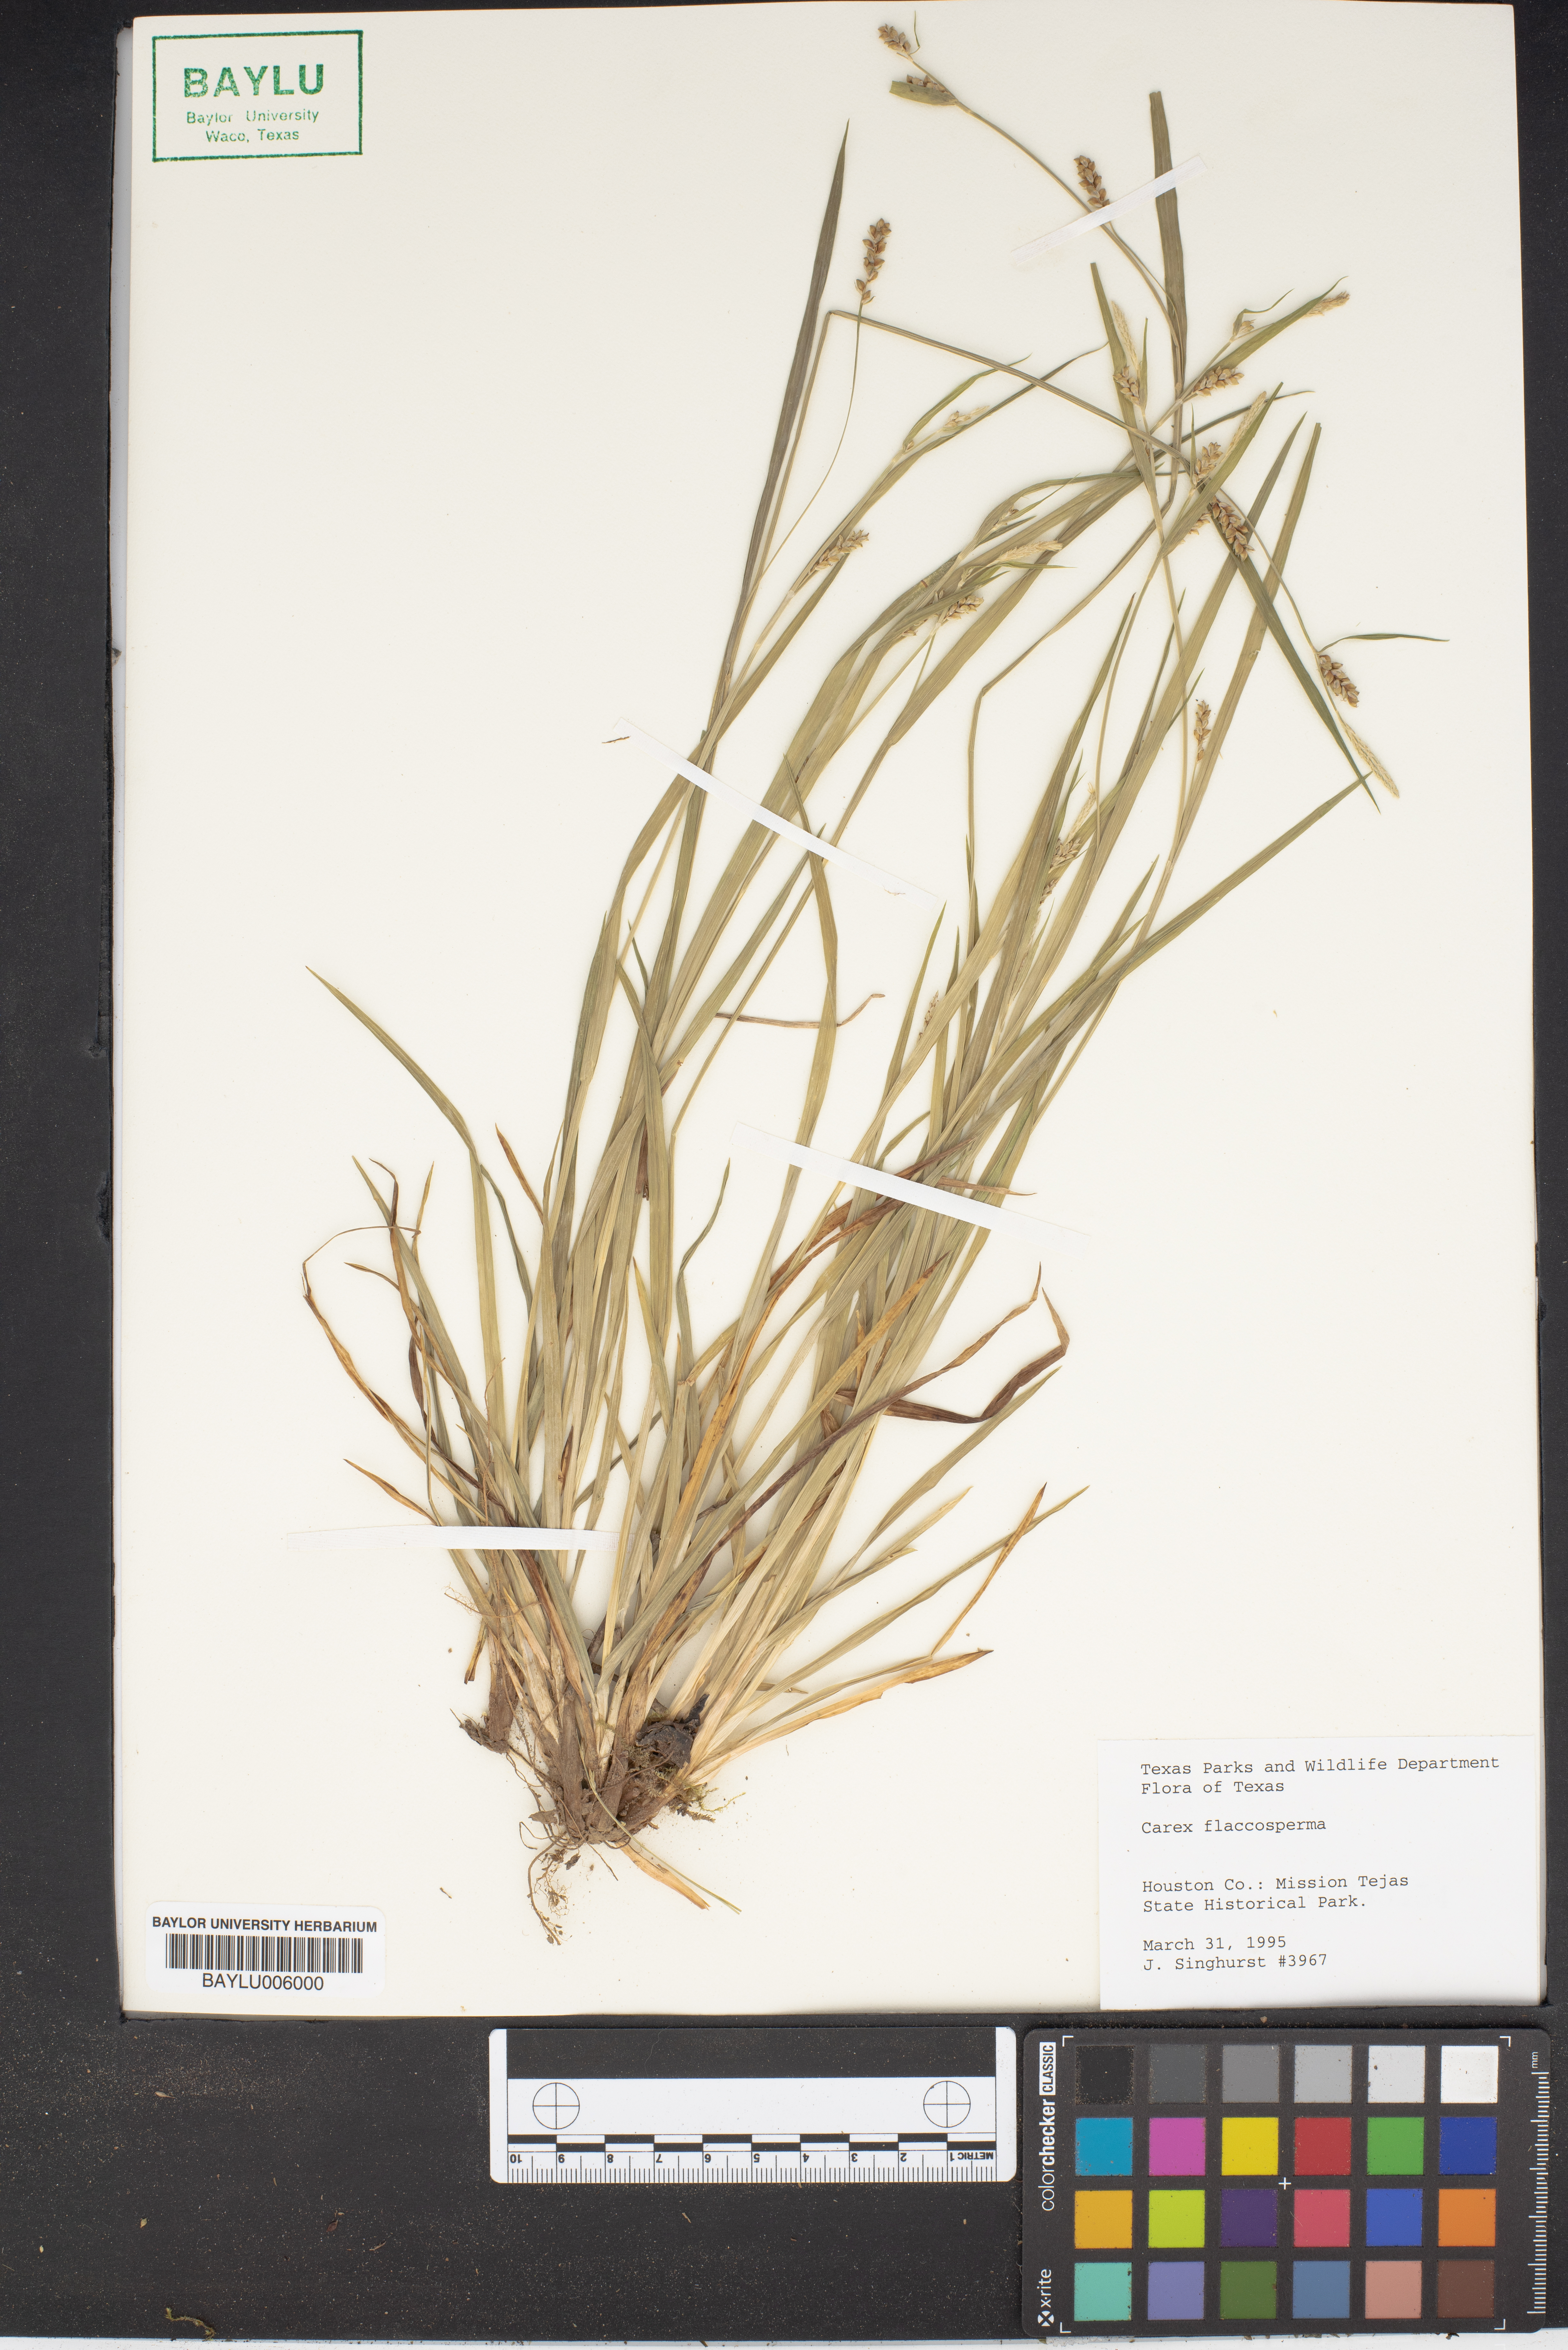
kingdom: Plantae
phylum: Tracheophyta
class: Liliopsida
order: Poales
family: Cyperaceae
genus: Carex
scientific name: Carex flaccosperma
